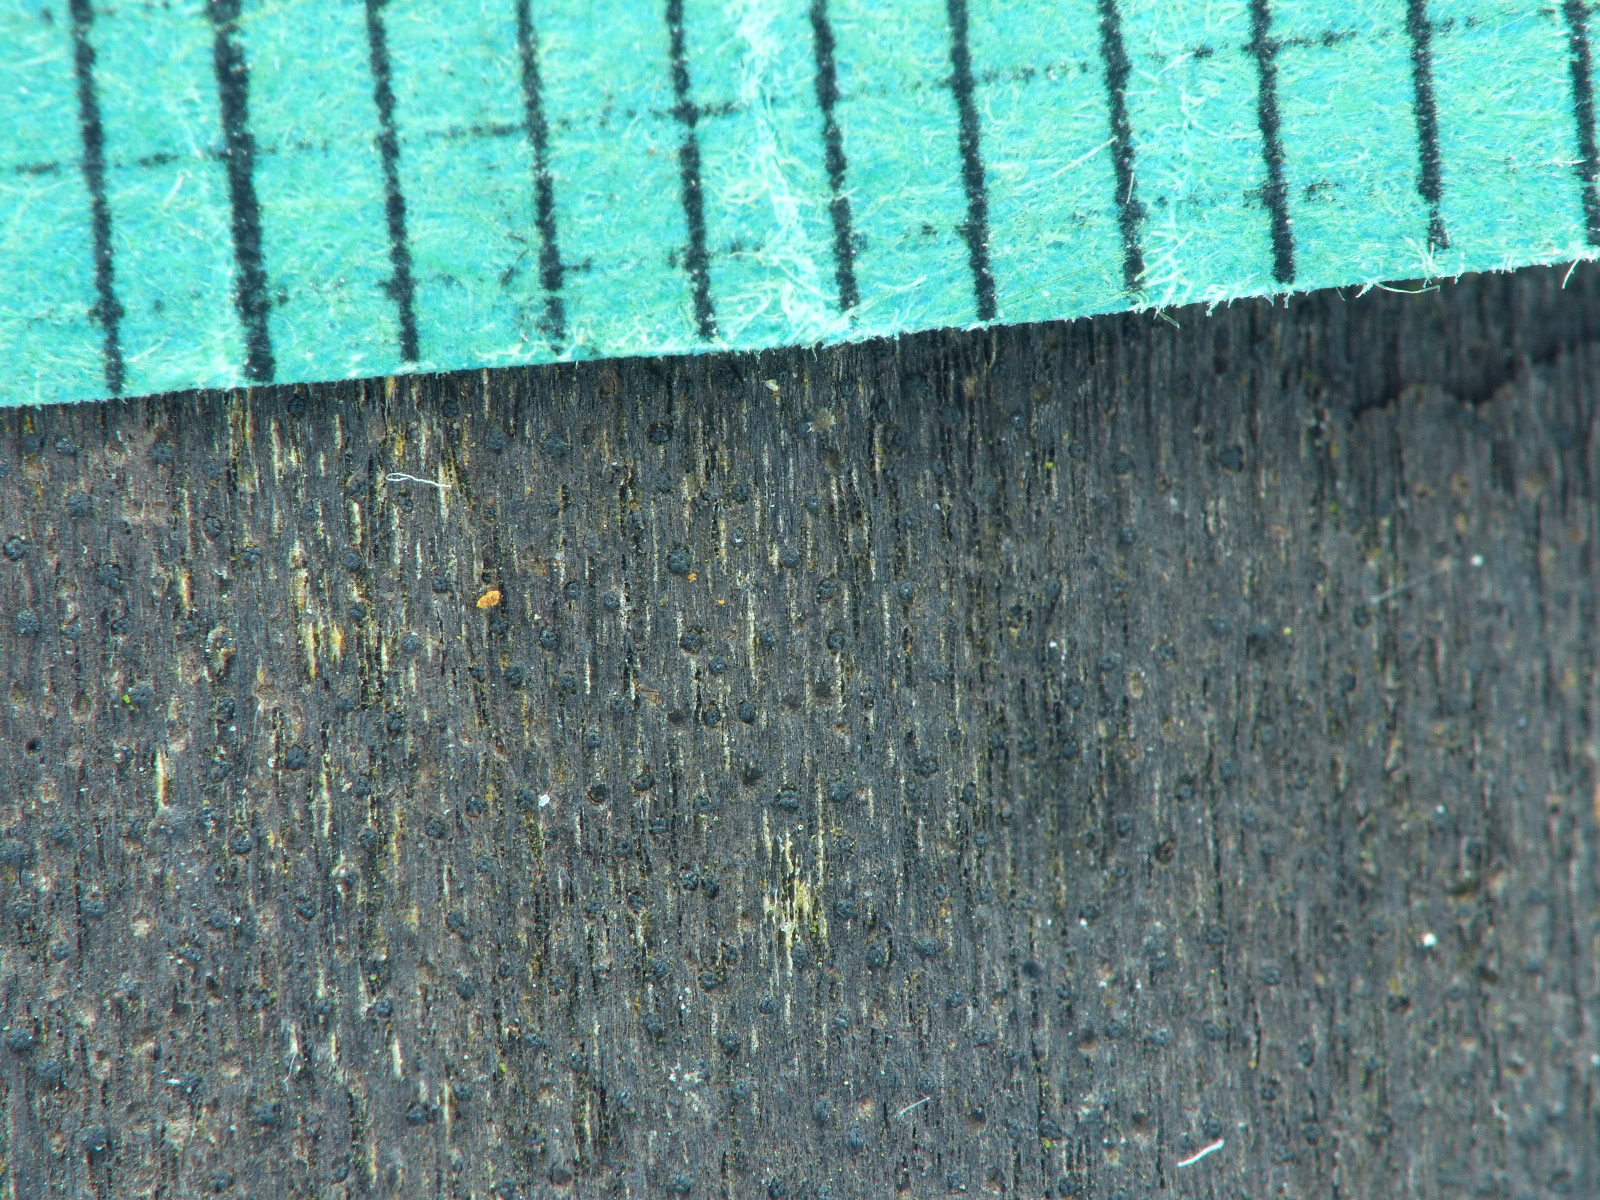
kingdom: Fungi
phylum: Ascomycota
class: Sordariomycetes
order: Xylariales
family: Diatrypaceae
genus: Eutypa
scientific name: Eutypa
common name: kulskorpe
